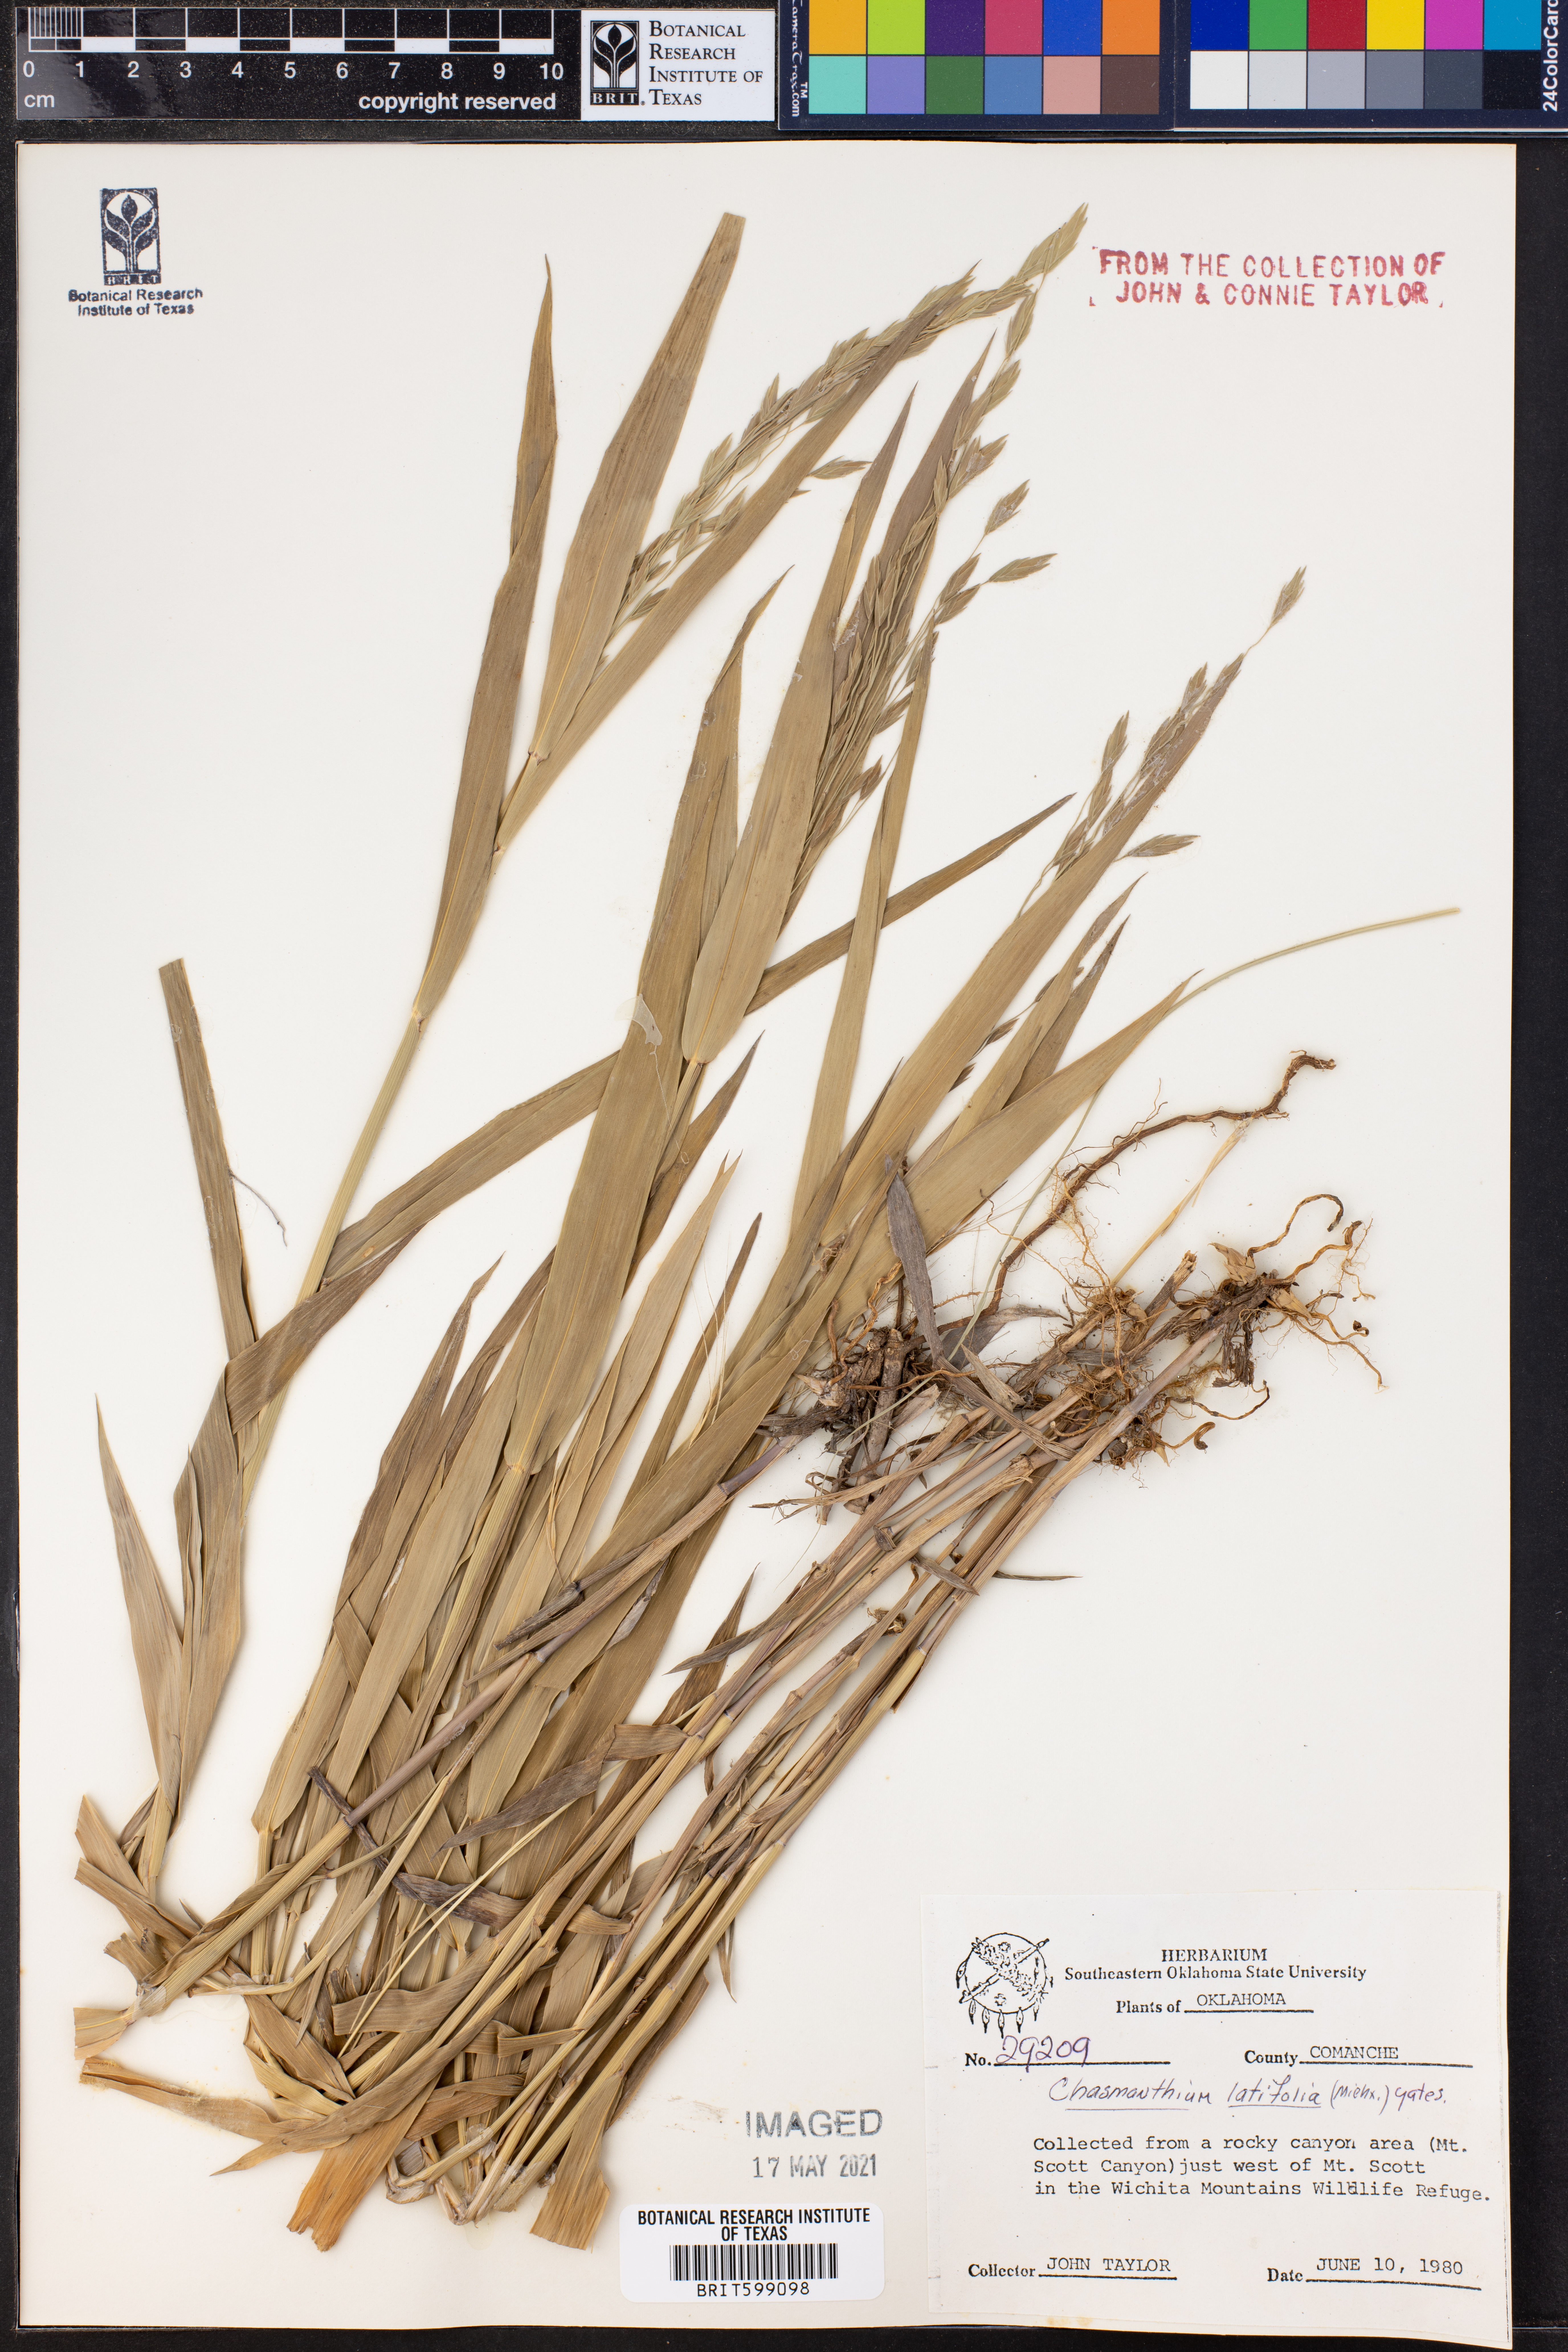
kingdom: Plantae
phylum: Tracheophyta
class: Liliopsida
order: Poales
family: Poaceae
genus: Chasmanthium
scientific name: Chasmanthium latifolium
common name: Broad-leaved chasmanthium
